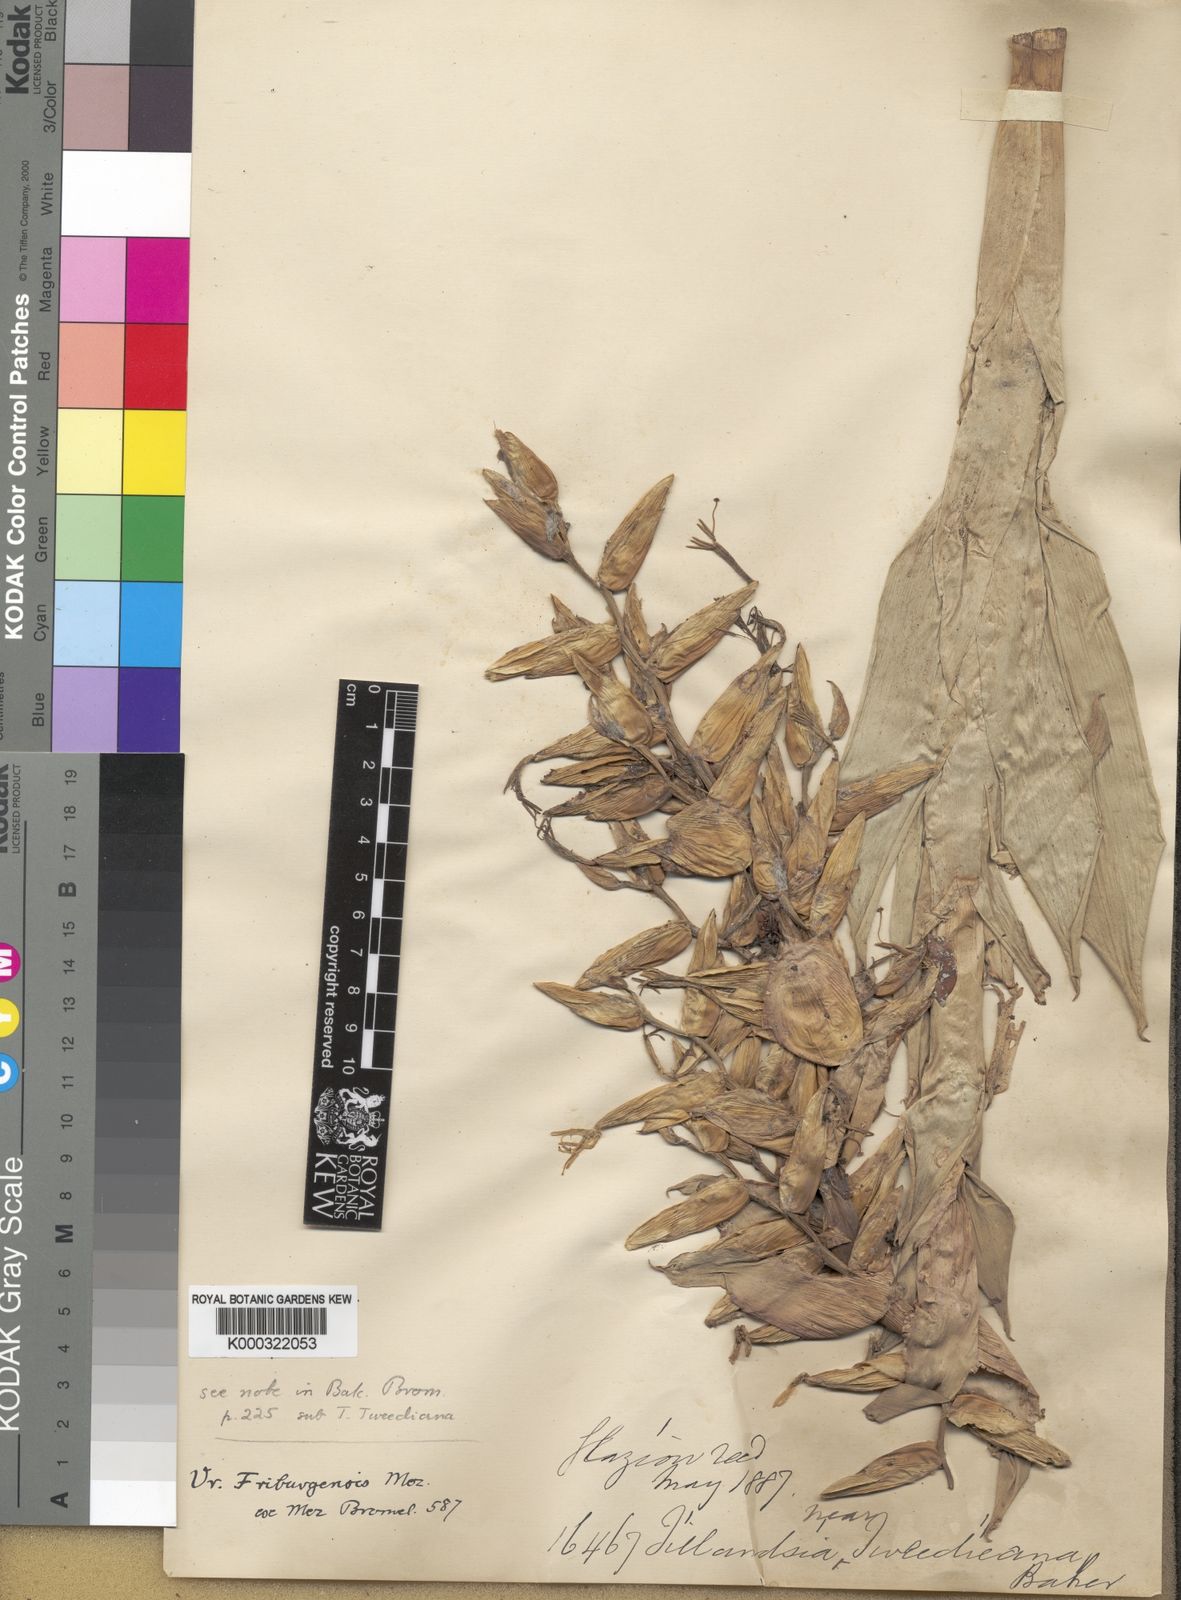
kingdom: Plantae
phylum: Tracheophyta
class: Liliopsida
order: Poales
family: Bromeliaceae
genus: Vriesea
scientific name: Vriesea friburgensis
